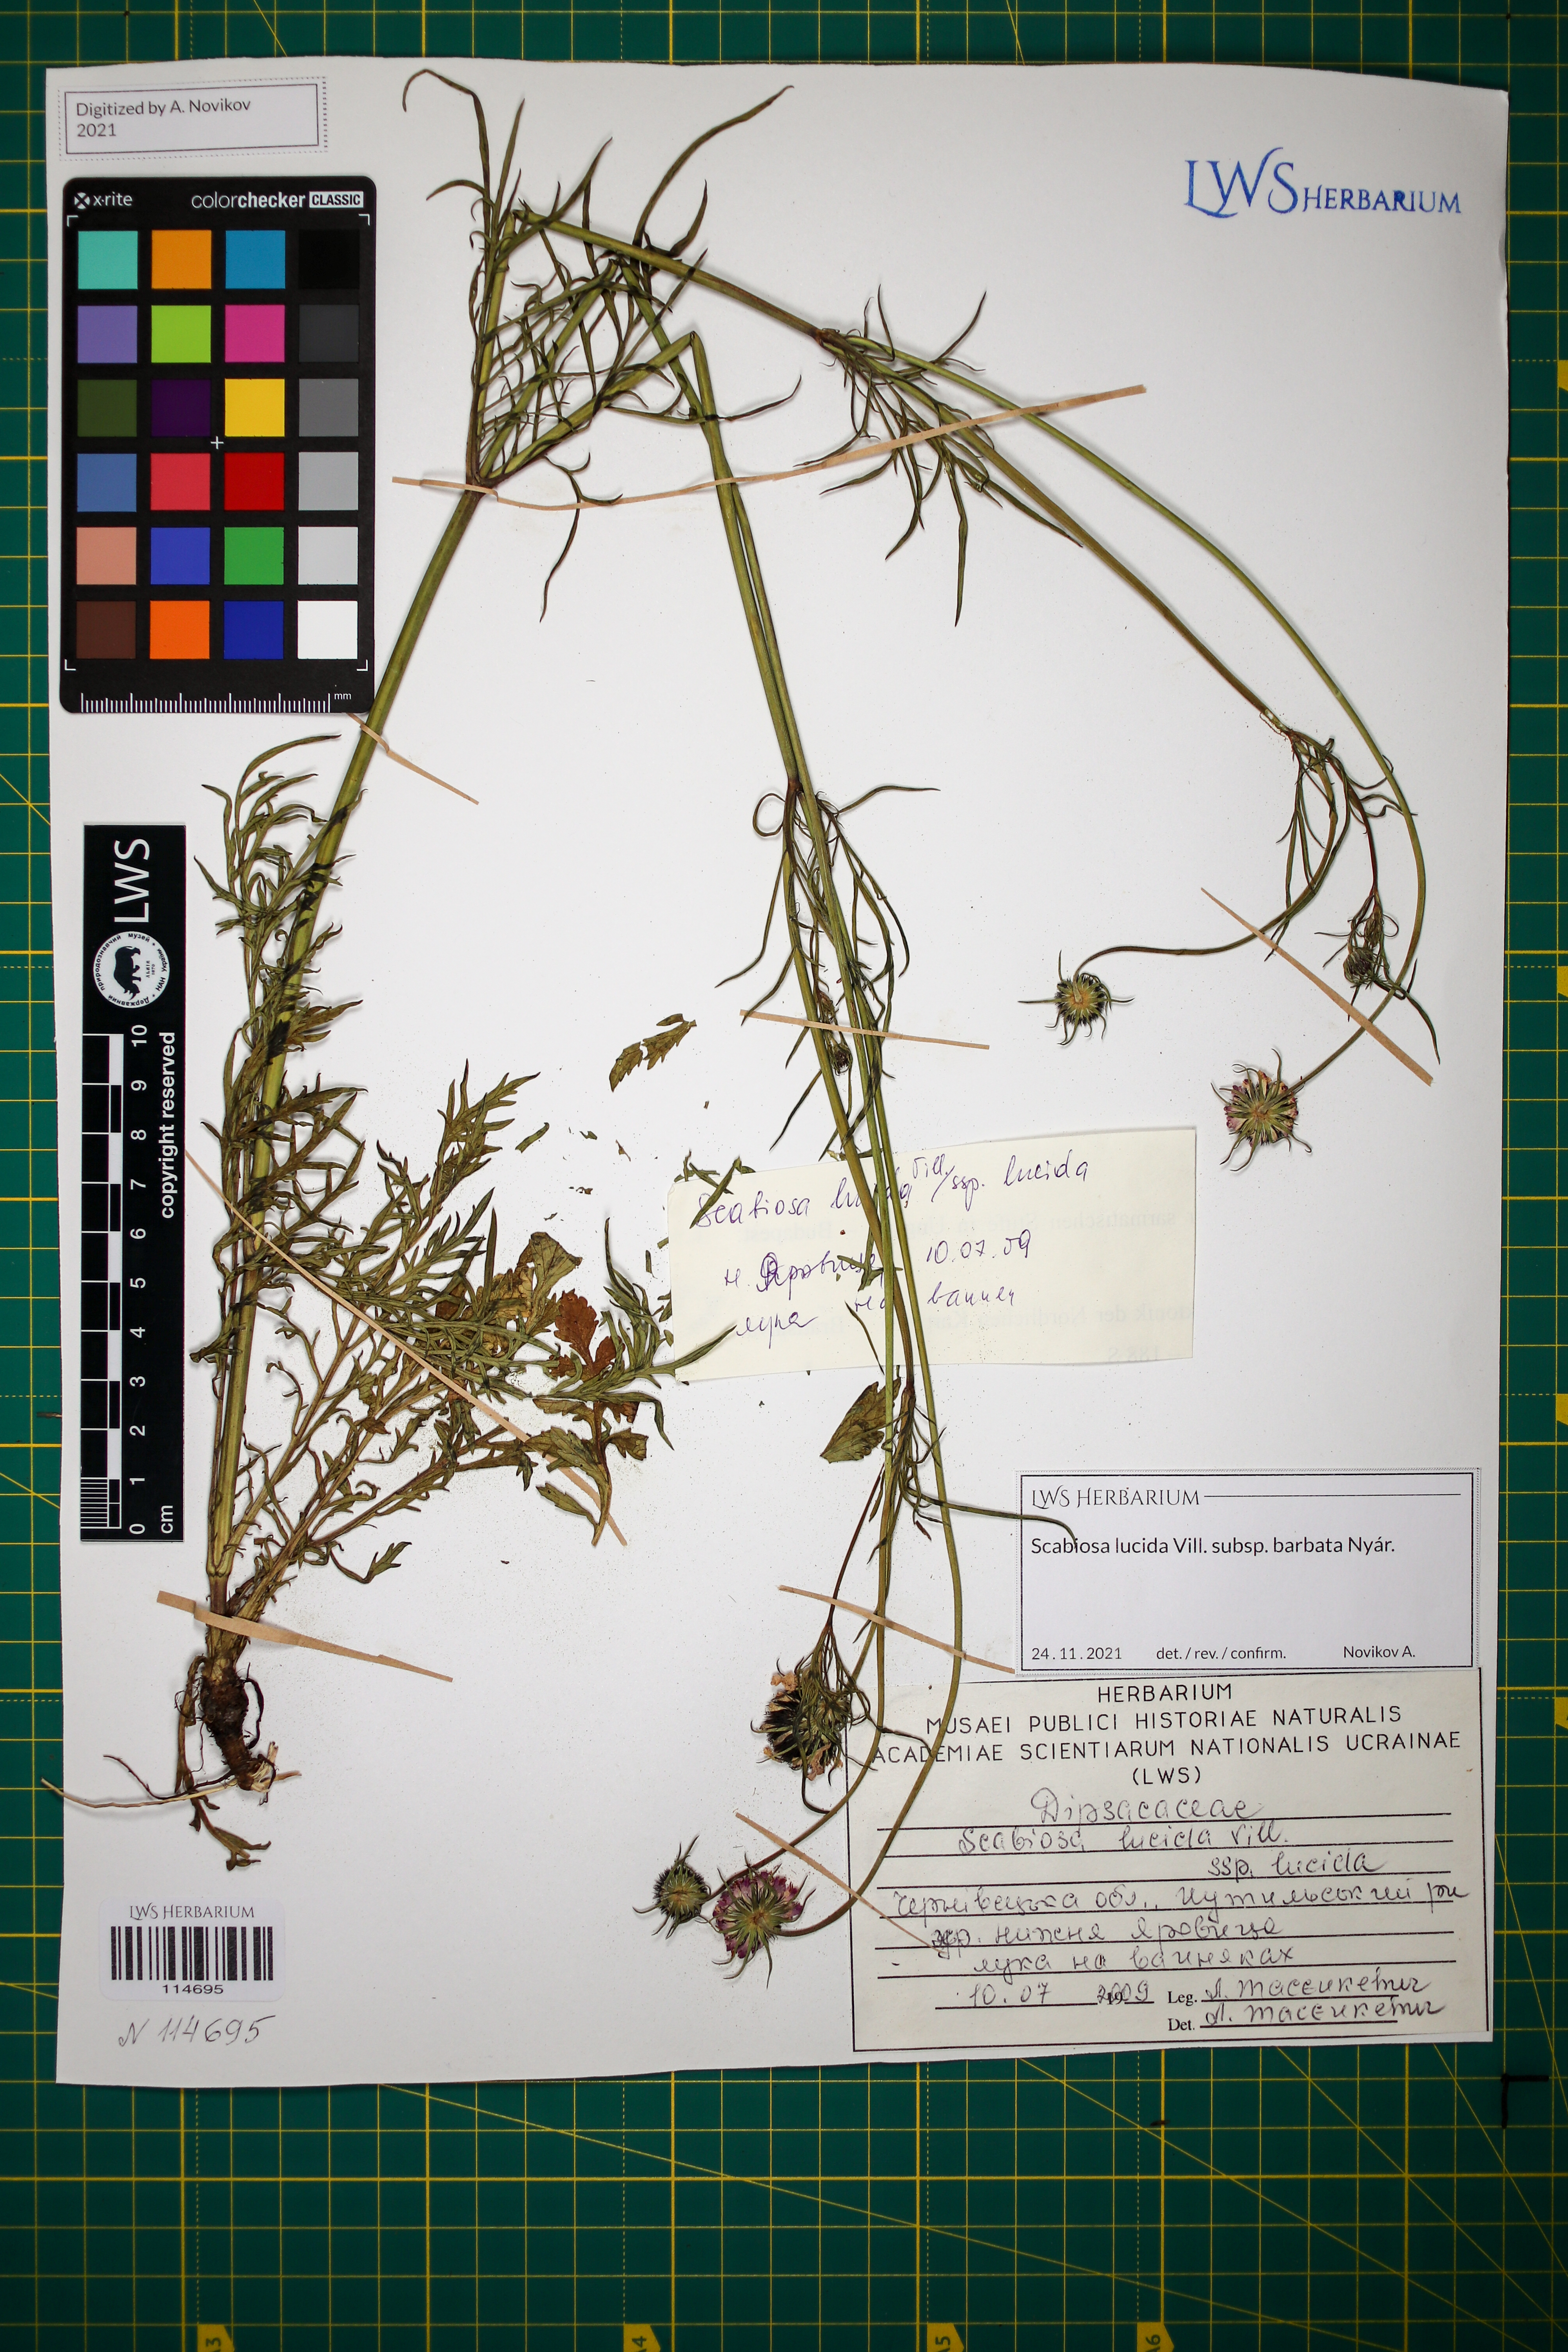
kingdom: Plantae
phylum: Tracheophyta
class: Magnoliopsida
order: Dipsacales
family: Caprifoliaceae
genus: Scabiosa
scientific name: Scabiosa lucida
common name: Shining scabious
